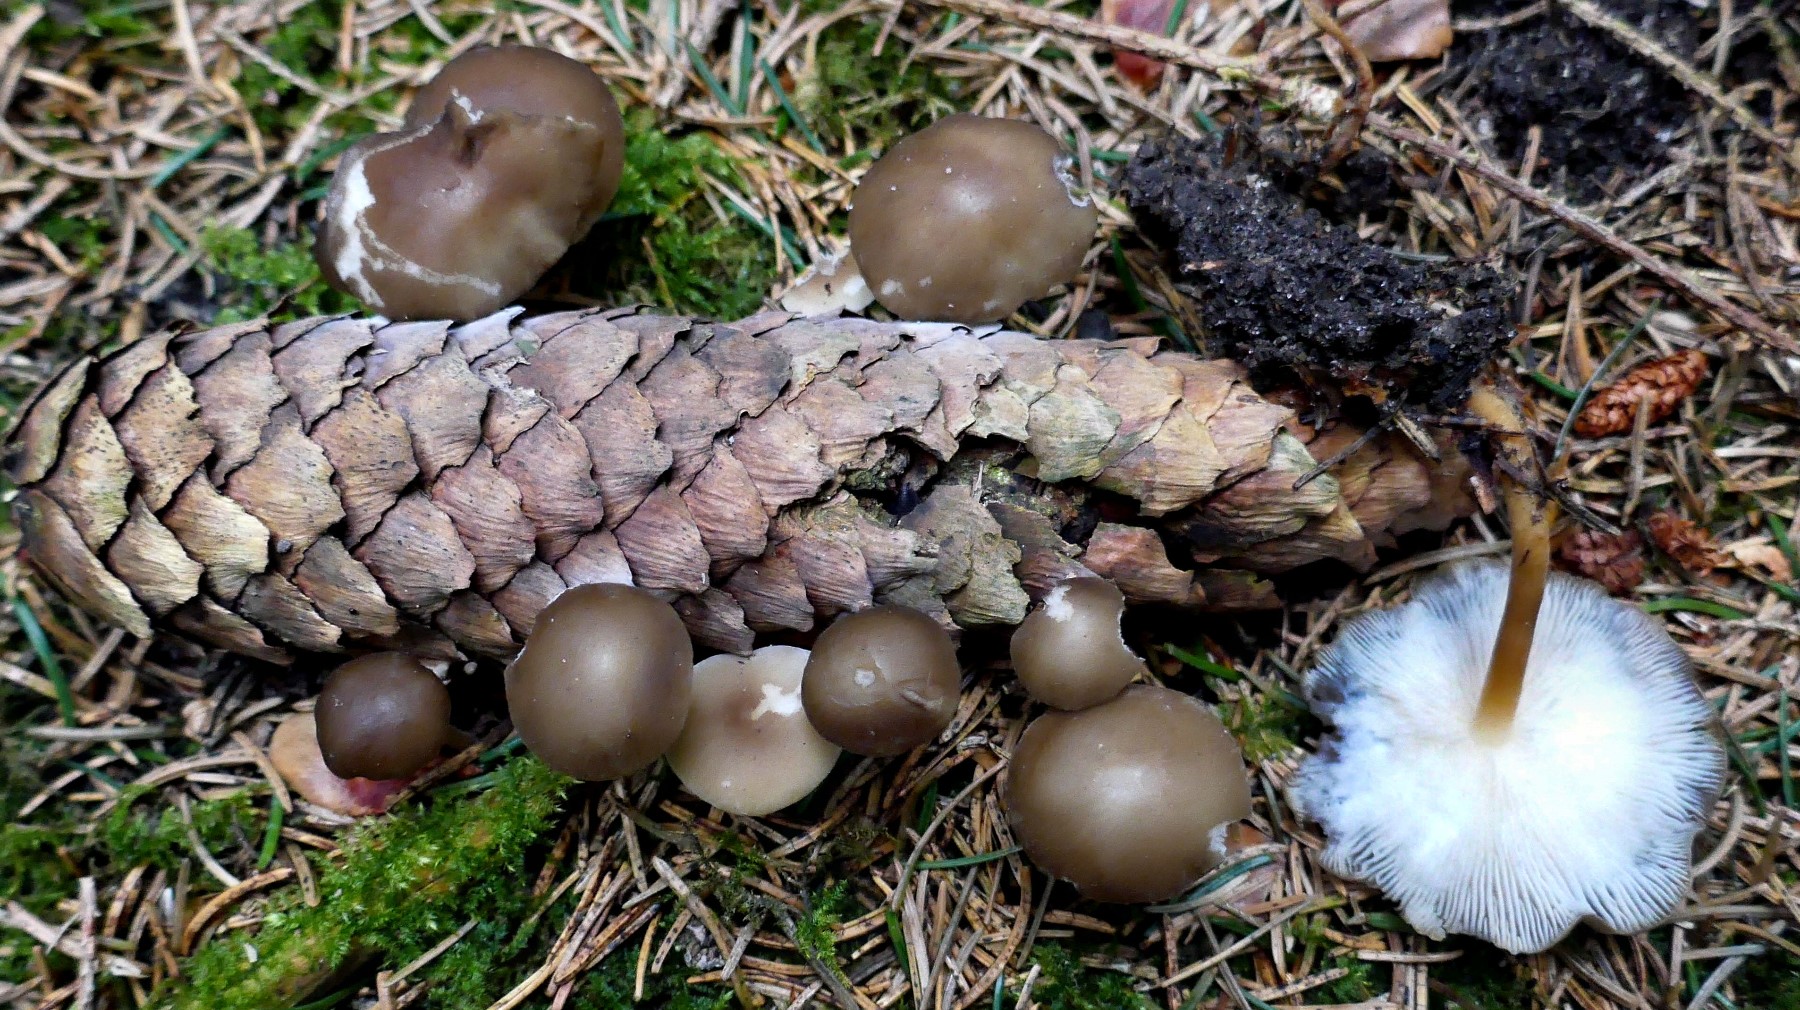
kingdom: Fungi
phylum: Basidiomycota
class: Agaricomycetes
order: Agaricales
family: Physalacriaceae
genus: Strobilurus
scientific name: Strobilurus esculentus
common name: gran-koglehat
